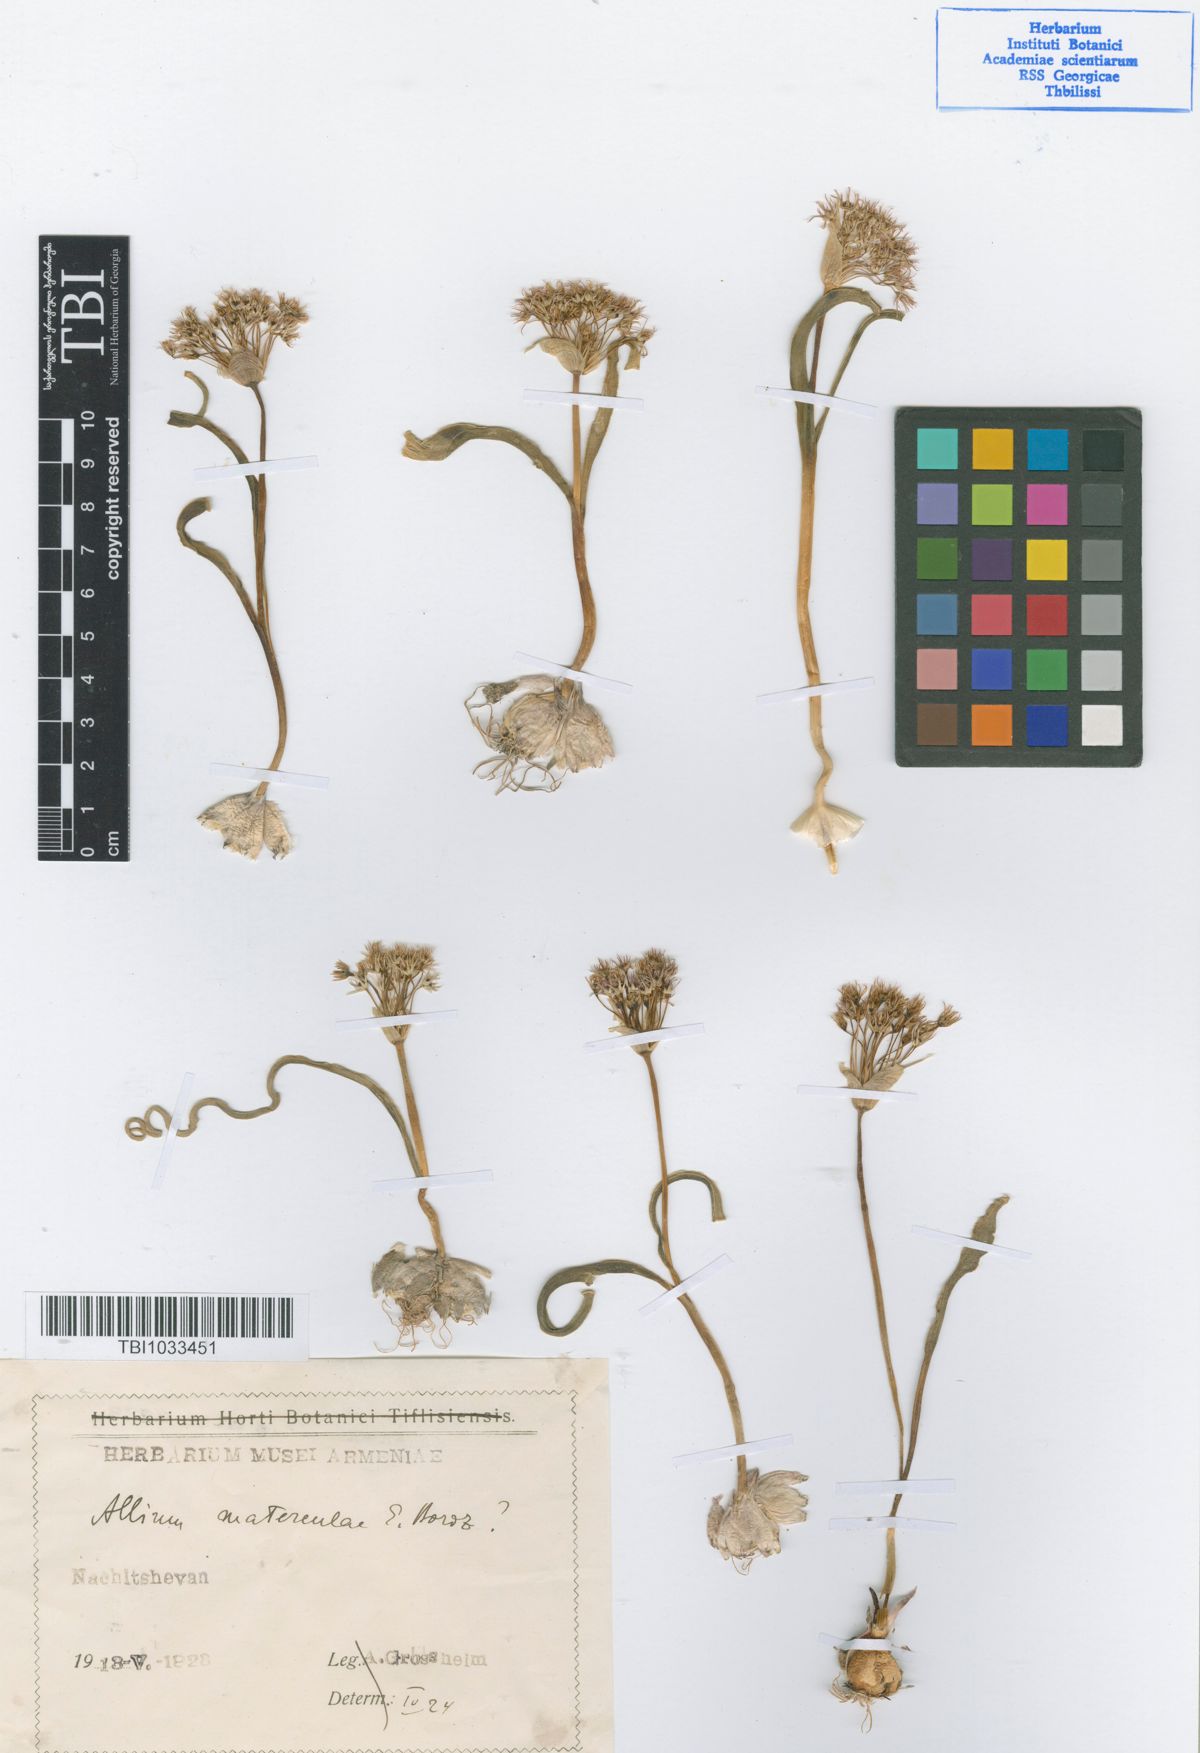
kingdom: Plantae
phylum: Tracheophyta
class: Liliopsida
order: Asparagales
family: Amaryllidaceae
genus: Allium
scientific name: Allium materculae
